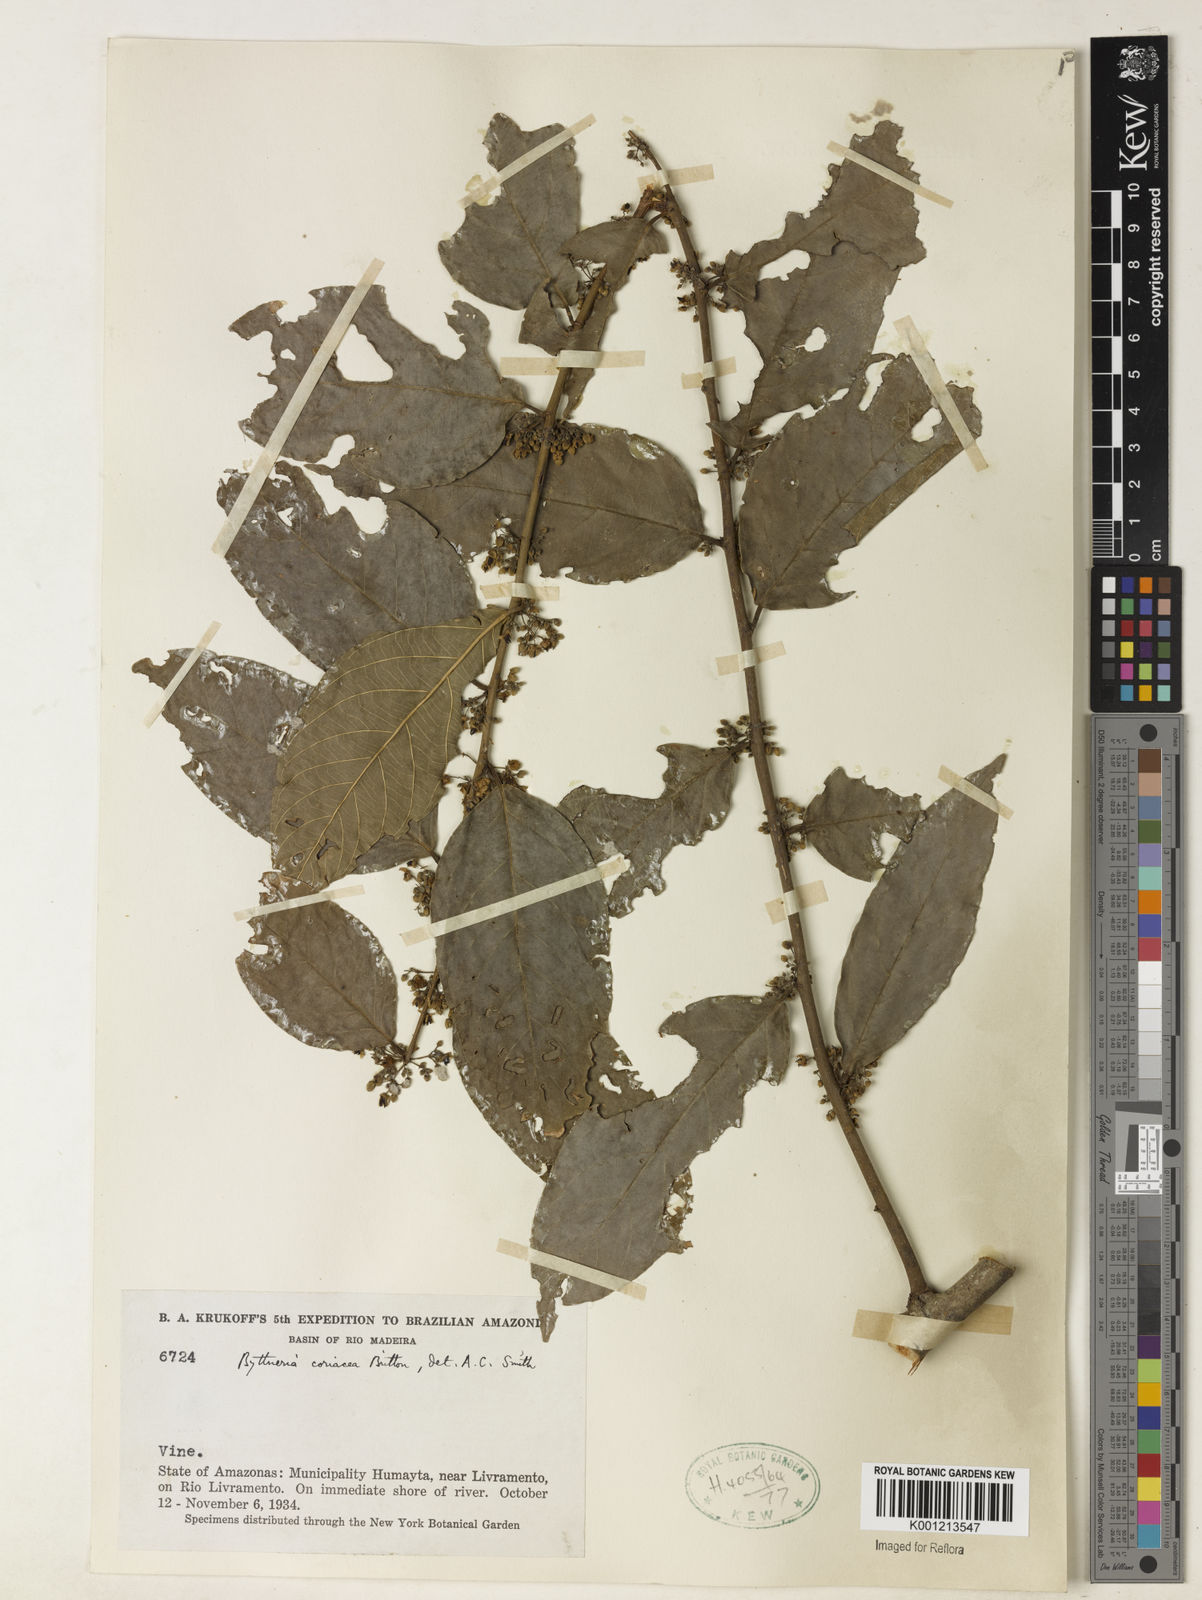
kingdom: Plantae
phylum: Tracheophyta
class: Magnoliopsida
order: Malvales
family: Malvaceae
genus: Byttneria
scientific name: Byttneria coriacea
